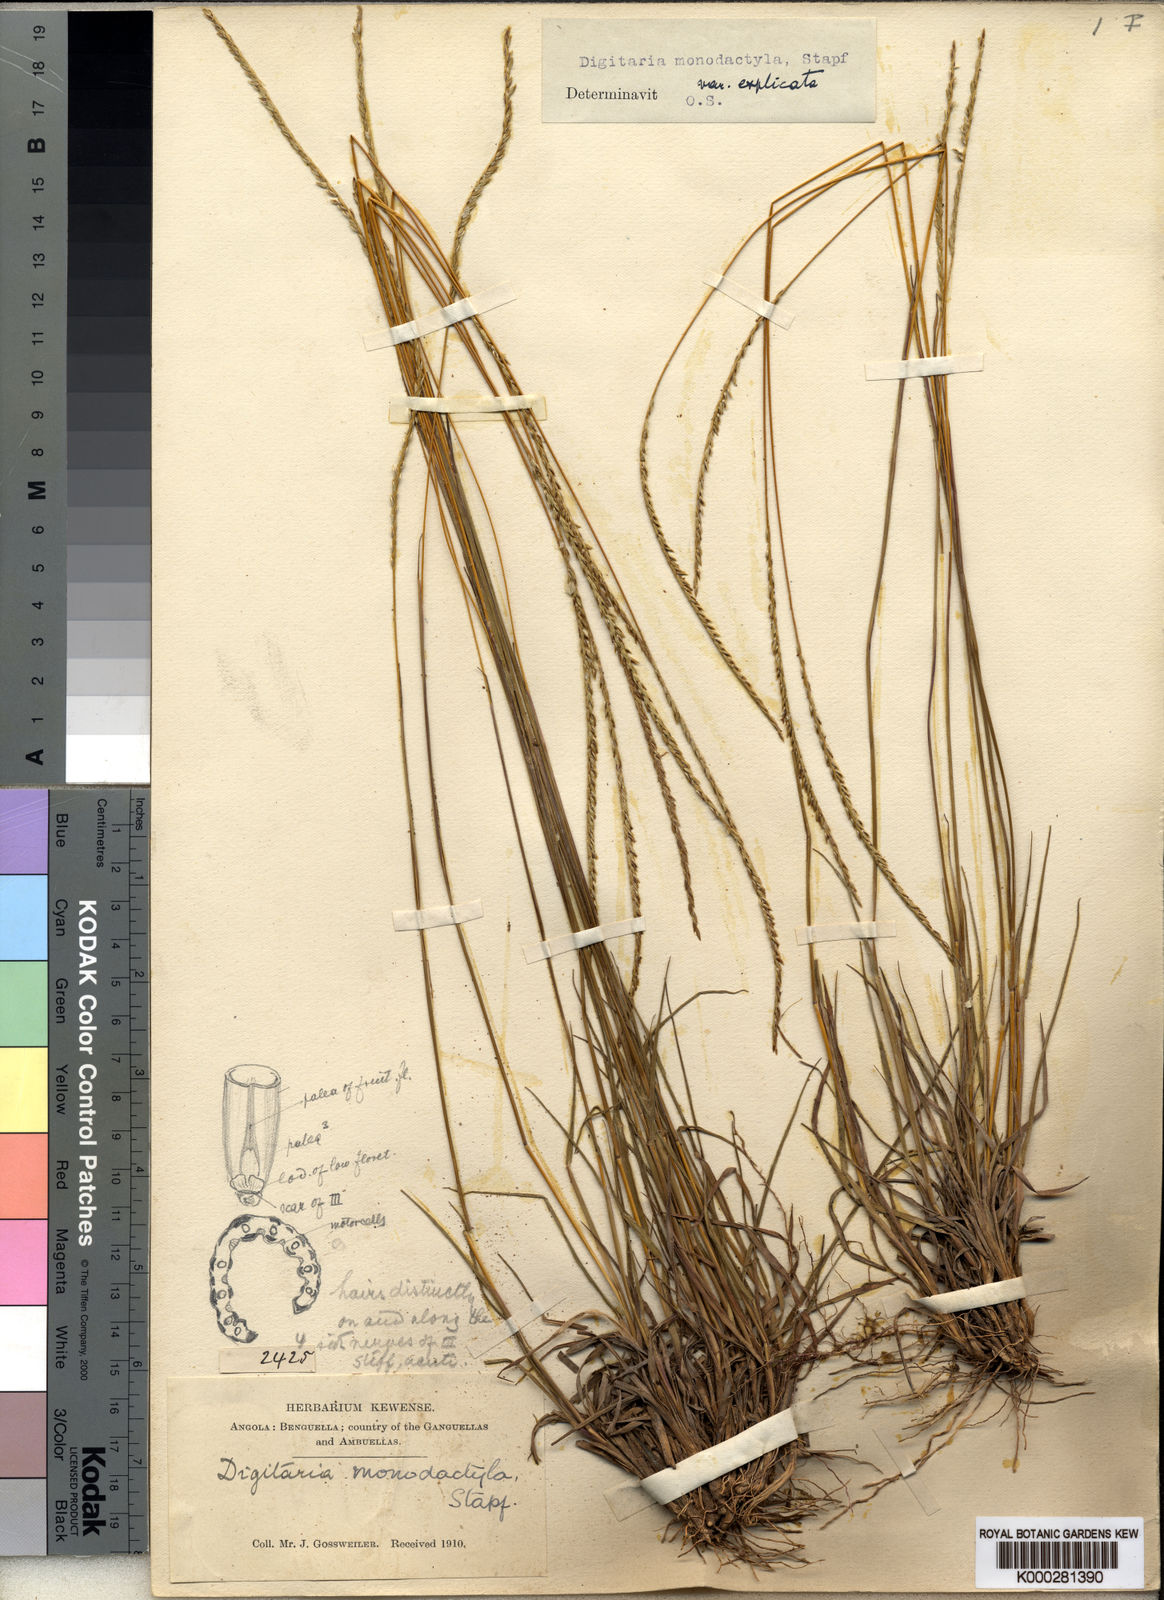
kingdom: Plantae
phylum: Tracheophyta
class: Liliopsida
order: Poales
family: Poaceae
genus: Digitaria
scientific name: Digitaria monodactyla
